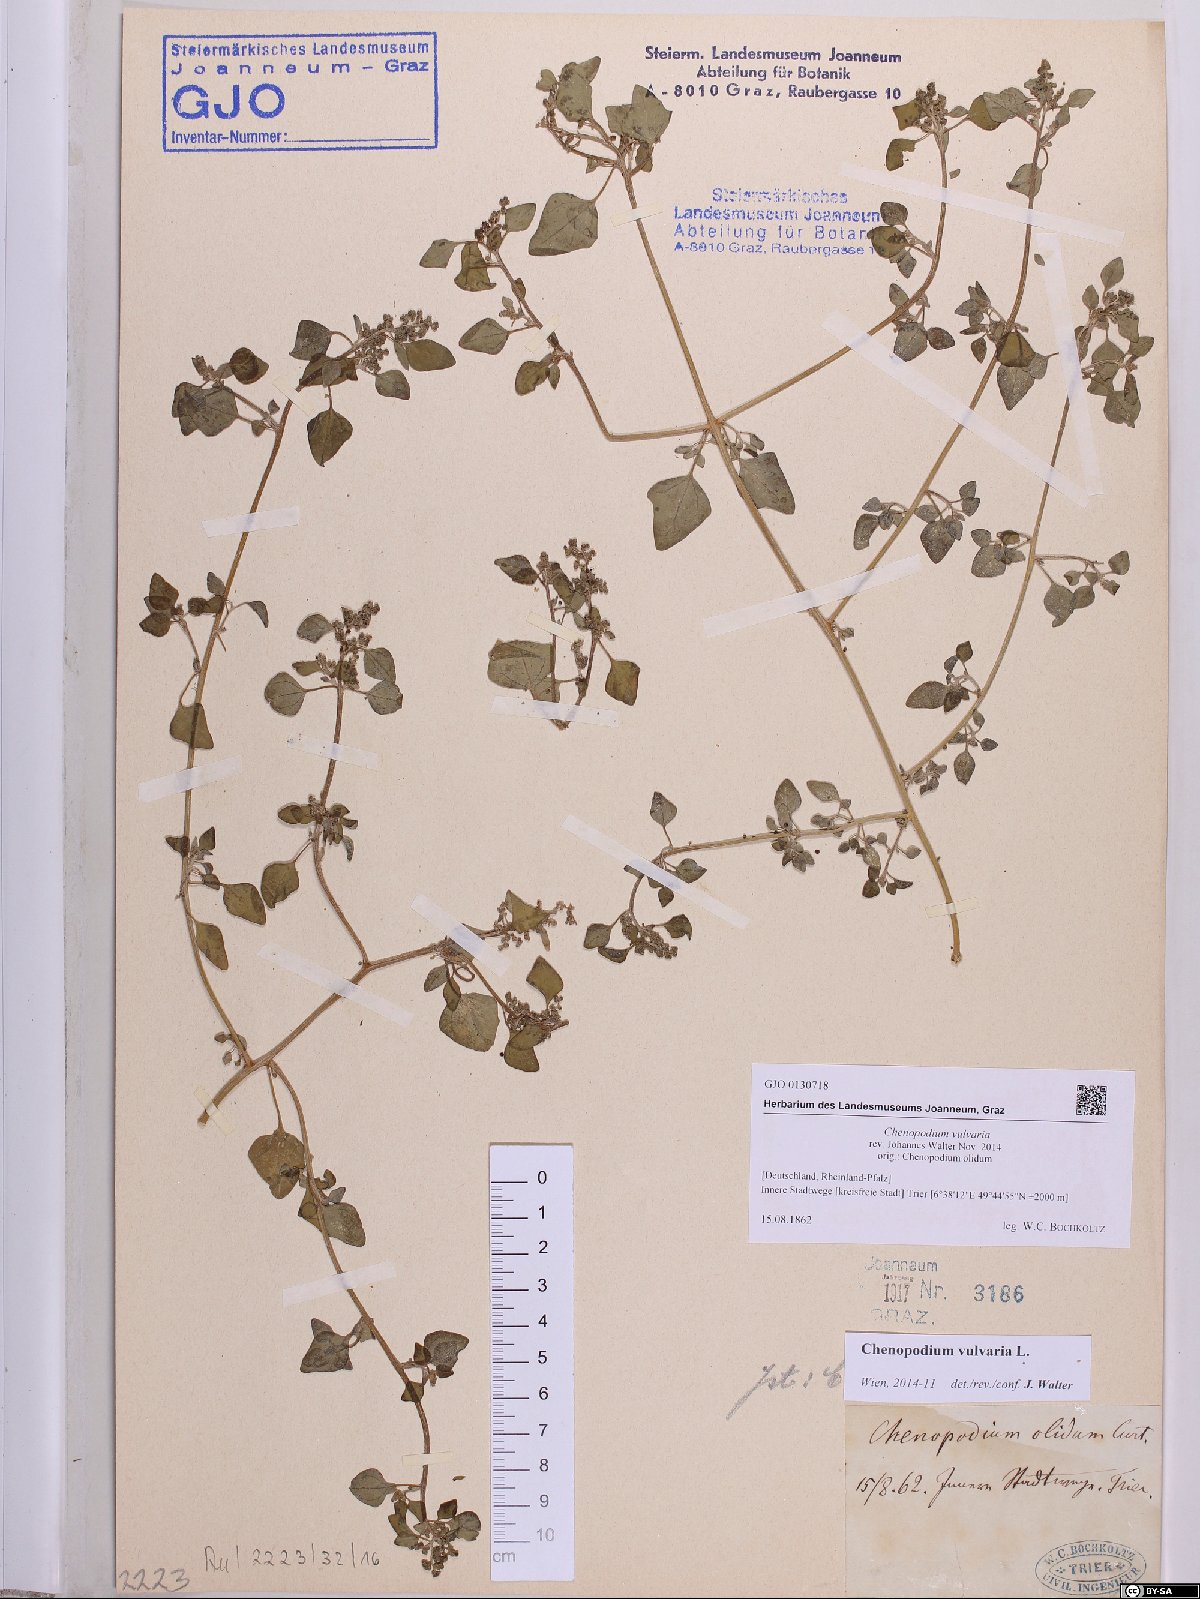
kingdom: Plantae
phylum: Tracheophyta
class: Magnoliopsida
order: Caryophyllales
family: Amaranthaceae
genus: Chenopodium
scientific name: Chenopodium vulvaria
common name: Stinking goosefoot
